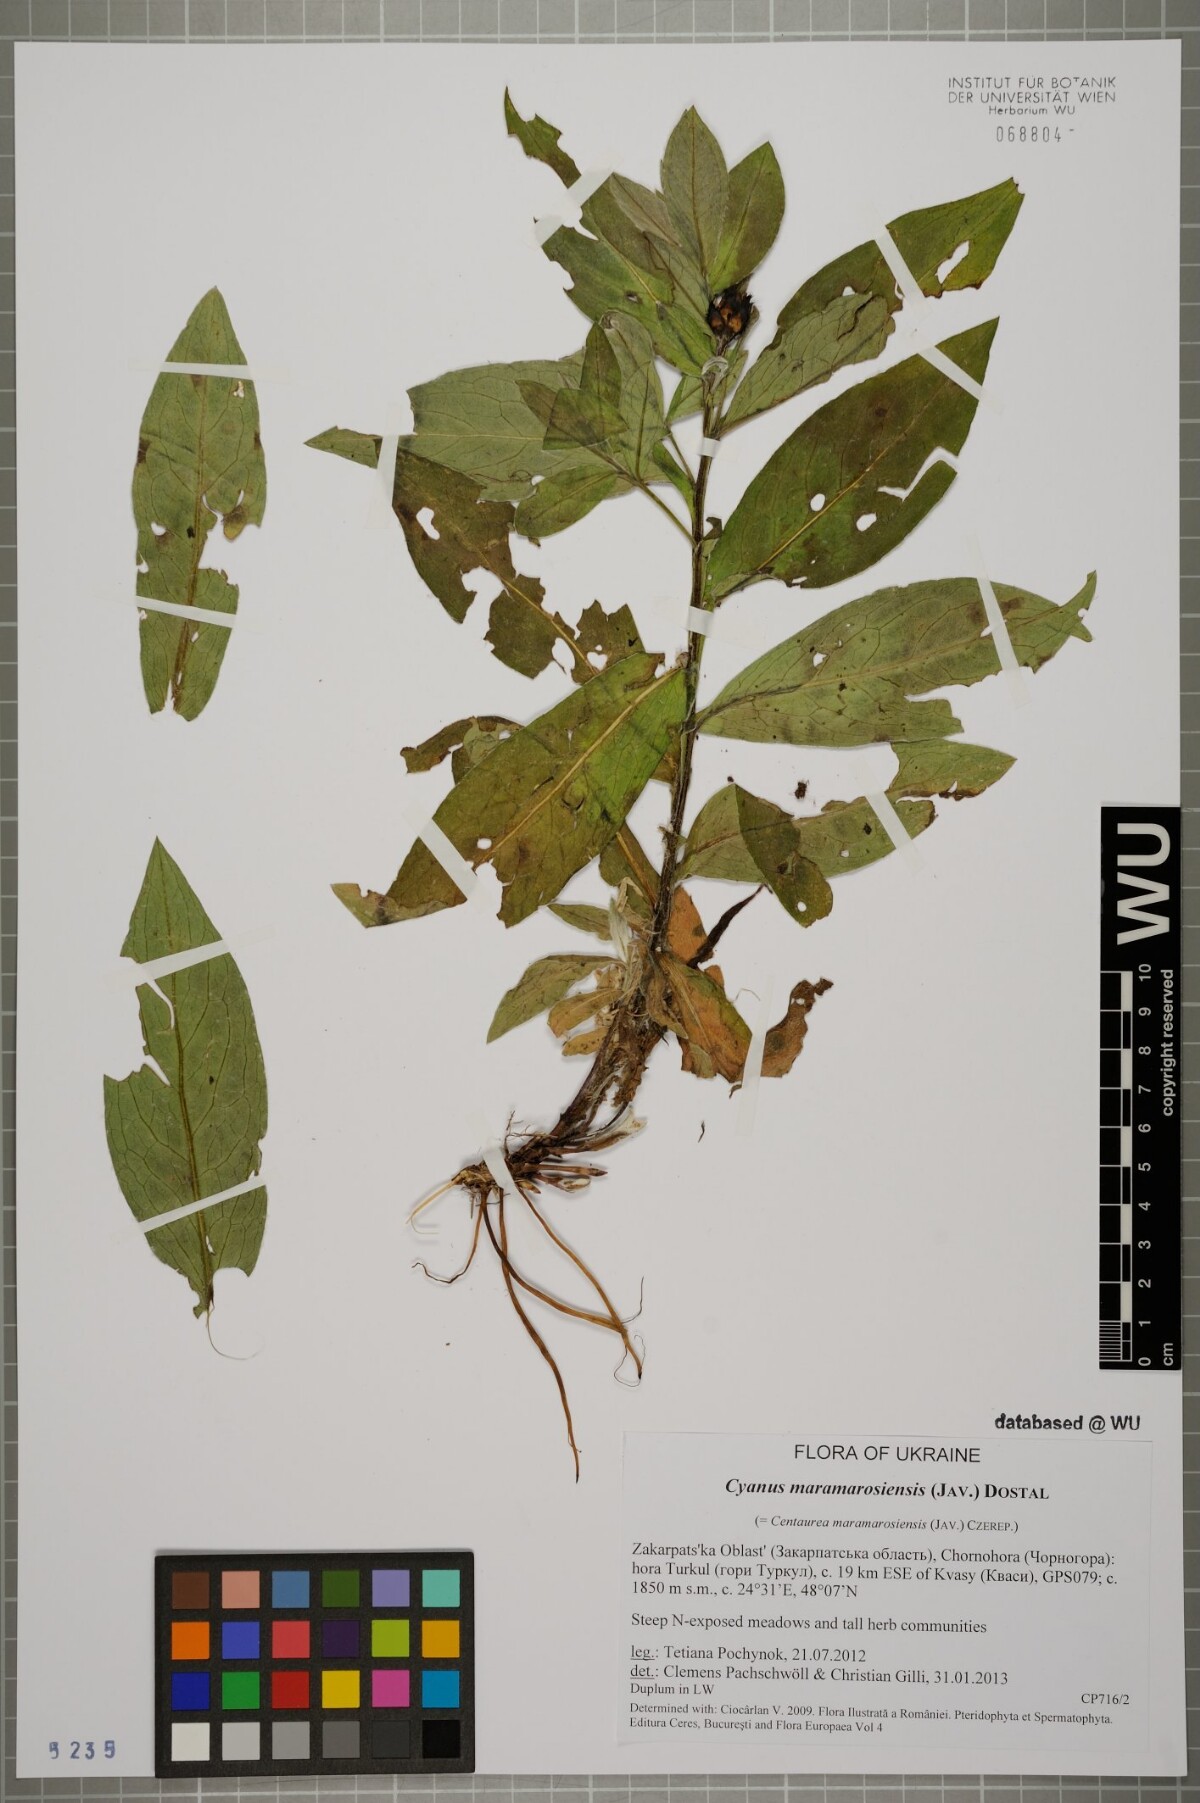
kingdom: Plantae
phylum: Tracheophyta
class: Magnoliopsida
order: Asterales
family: Asteraceae
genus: Centaurea
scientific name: Centaurea triumfettii
